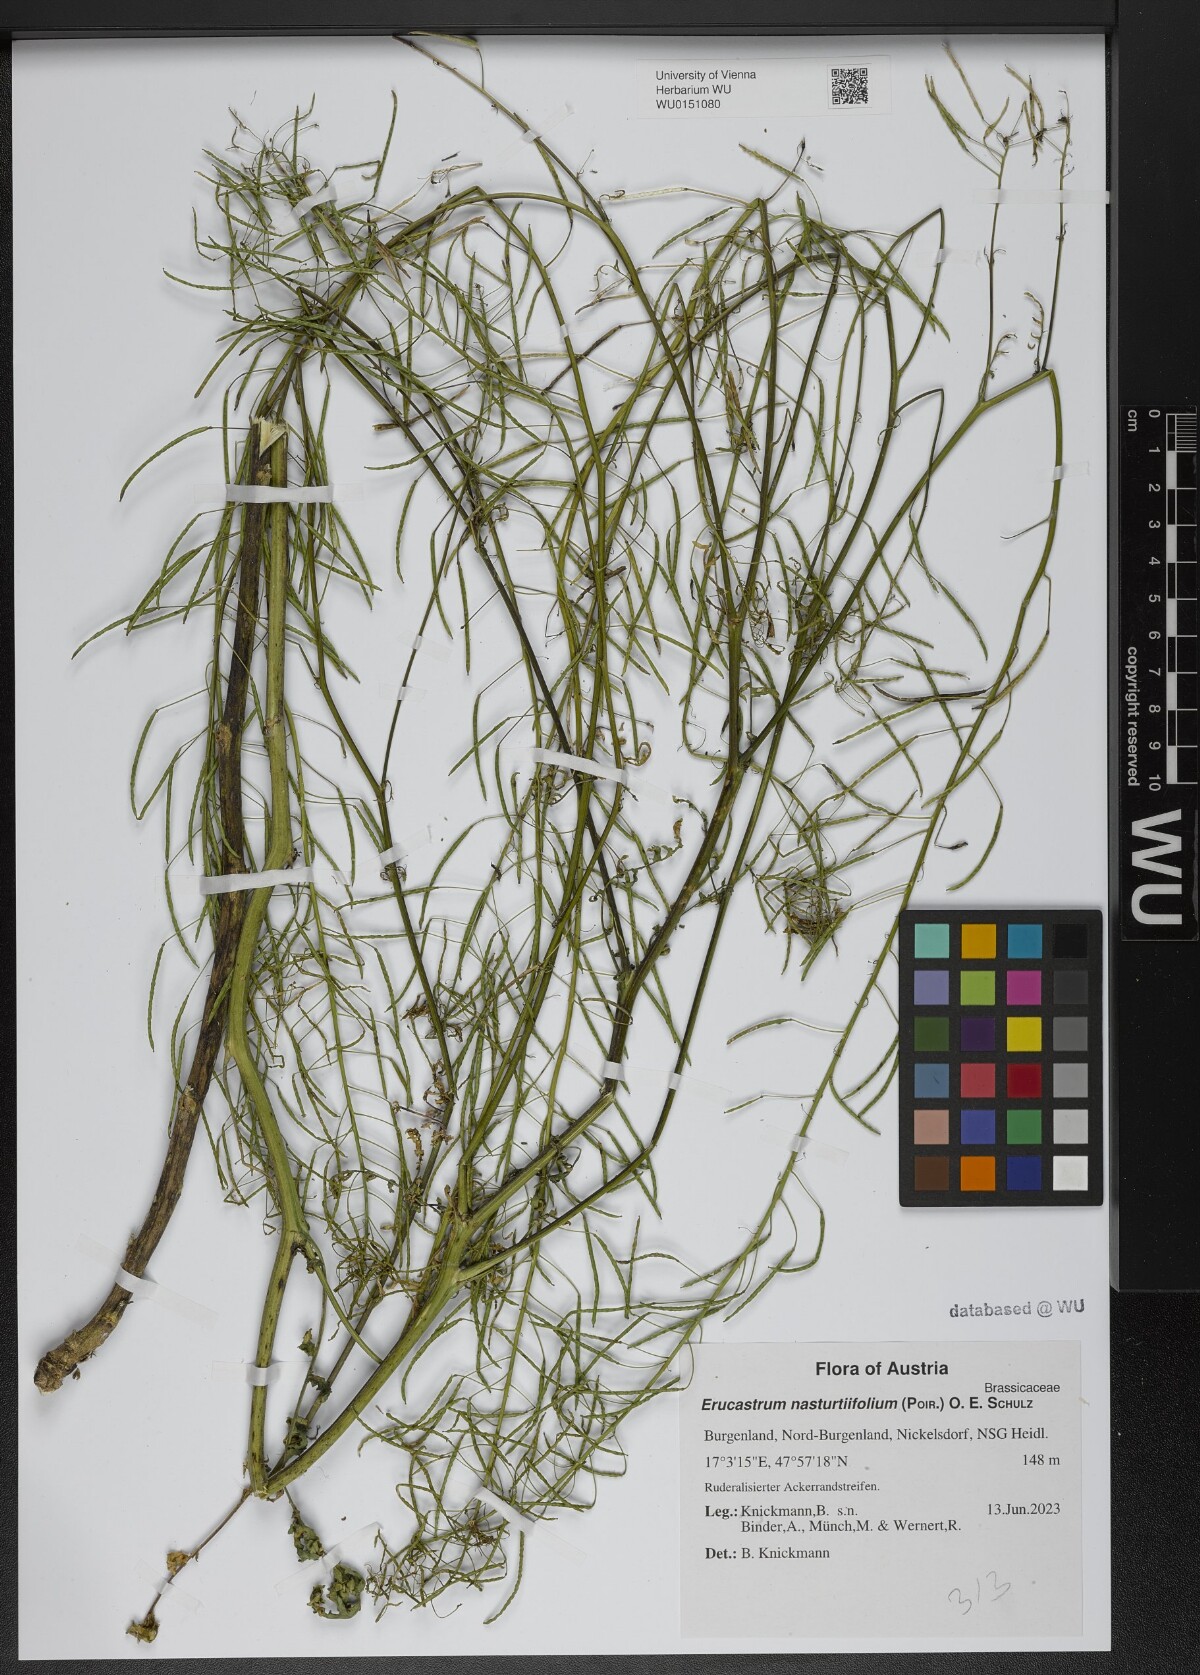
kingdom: Plantae
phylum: Tracheophyta
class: Magnoliopsida
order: Brassicales
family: Brassicaceae
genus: Erucastrum
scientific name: Erucastrum nasturtiifolium
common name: Watercress-leaf rocket
